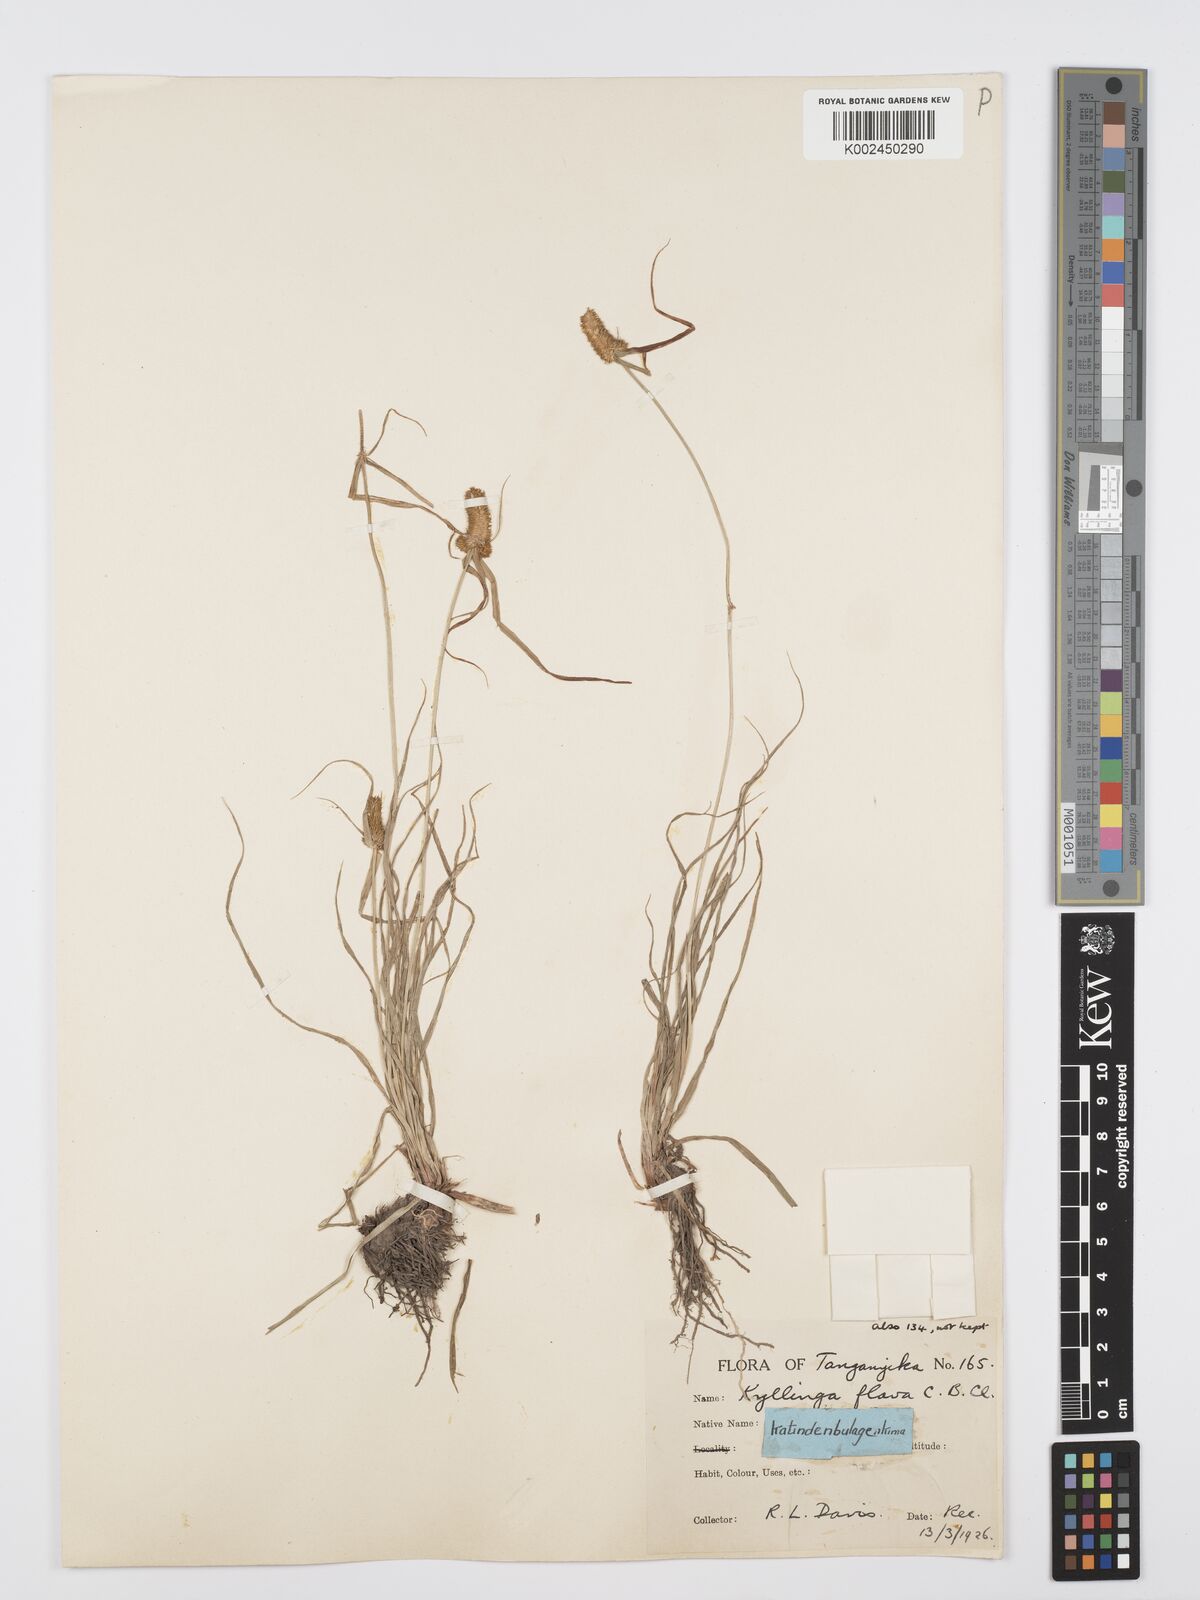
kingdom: Plantae
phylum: Tracheophyta
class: Liliopsida
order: Poales
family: Cyperaceae
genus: Cyperus
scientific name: Cyperus
